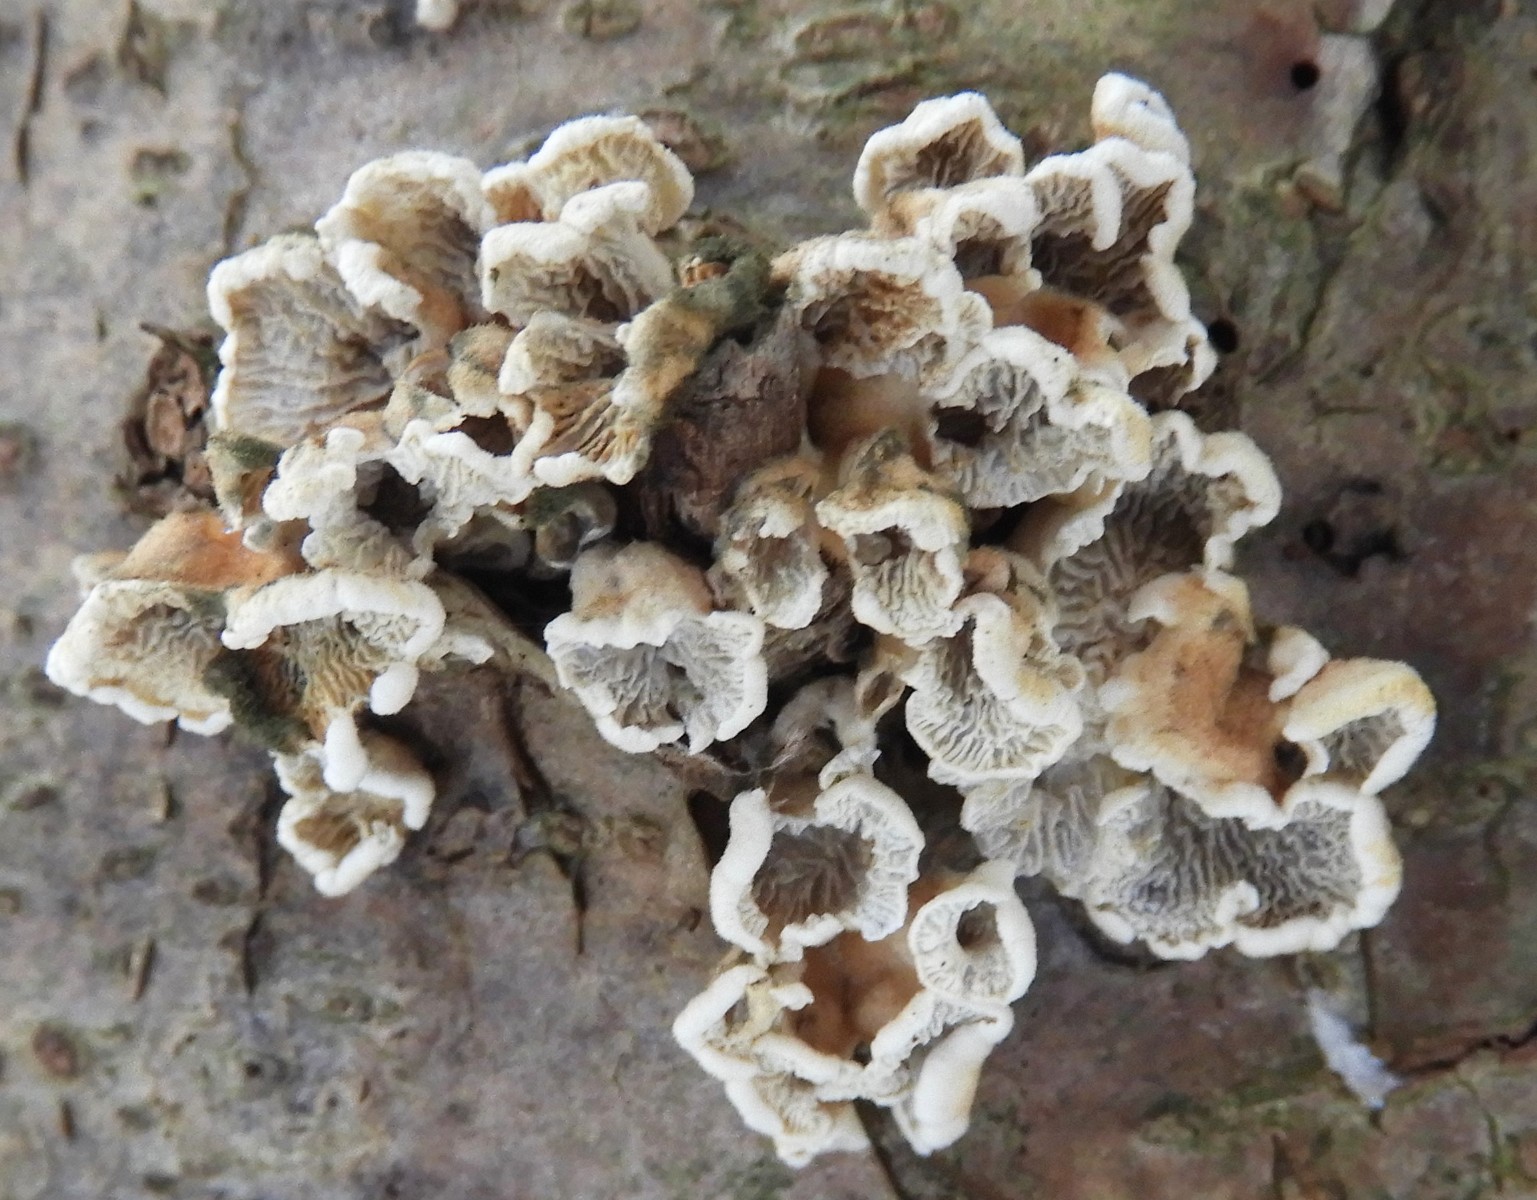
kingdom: Fungi
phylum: Basidiomycota
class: Agaricomycetes
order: Amylocorticiales
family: Amylocorticiaceae
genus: Plicaturopsis
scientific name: Plicaturopsis crispa
